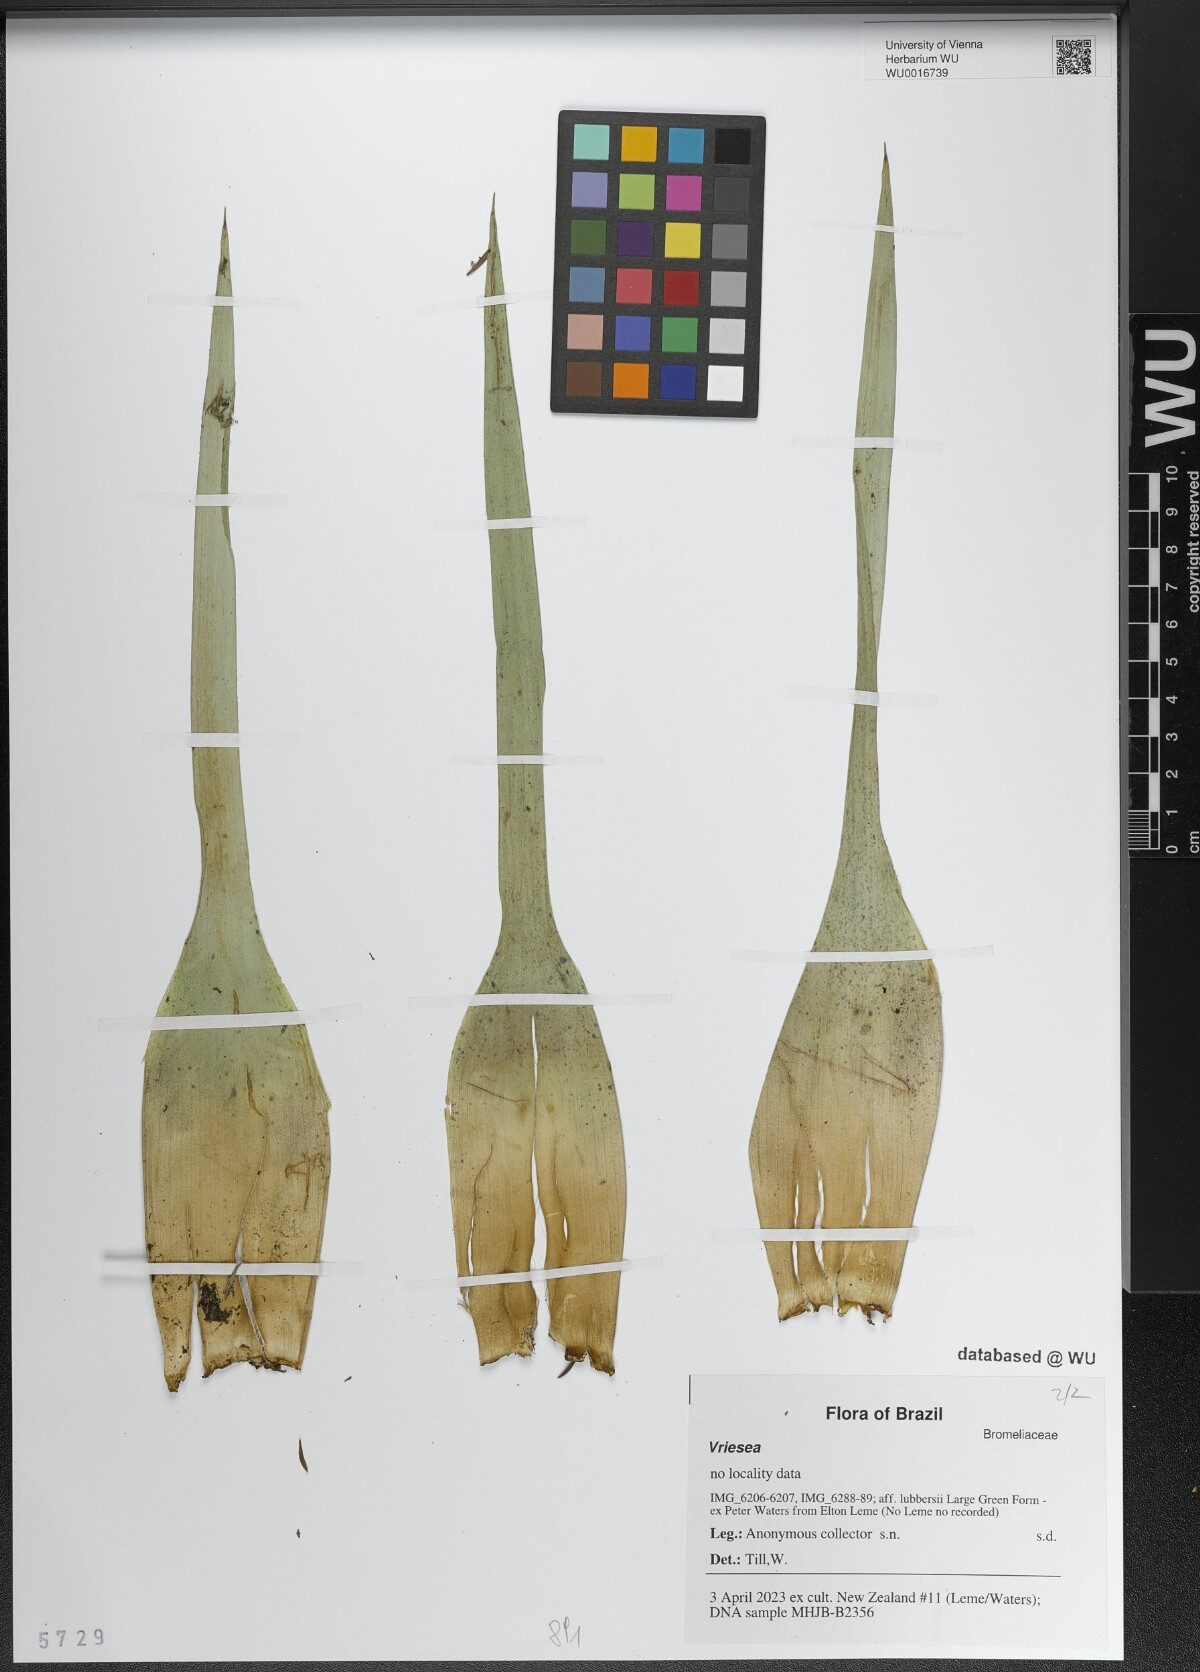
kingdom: Plantae
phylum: Tracheophyta
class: Liliopsida
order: Poales
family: Bromeliaceae
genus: Vriesea
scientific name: Vriesea
